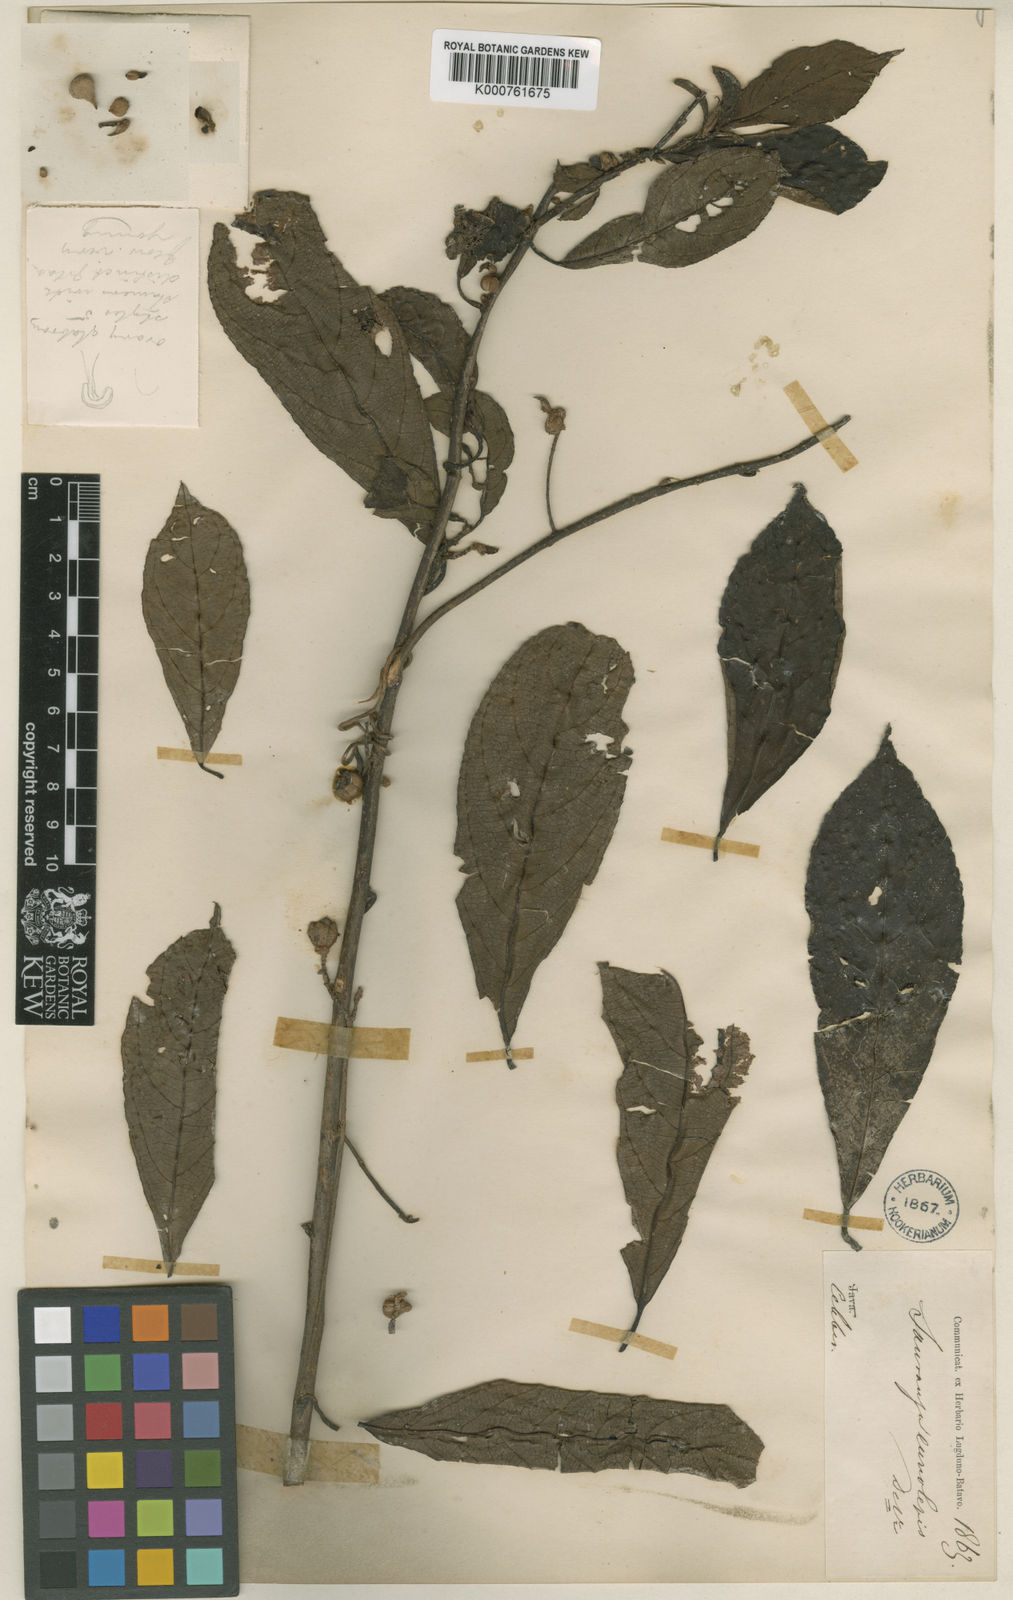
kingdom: Plantae
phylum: Tracheophyta
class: Magnoliopsida
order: Ericales
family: Actinidiaceae
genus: Saurauia
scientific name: Saurauia euryolepis
